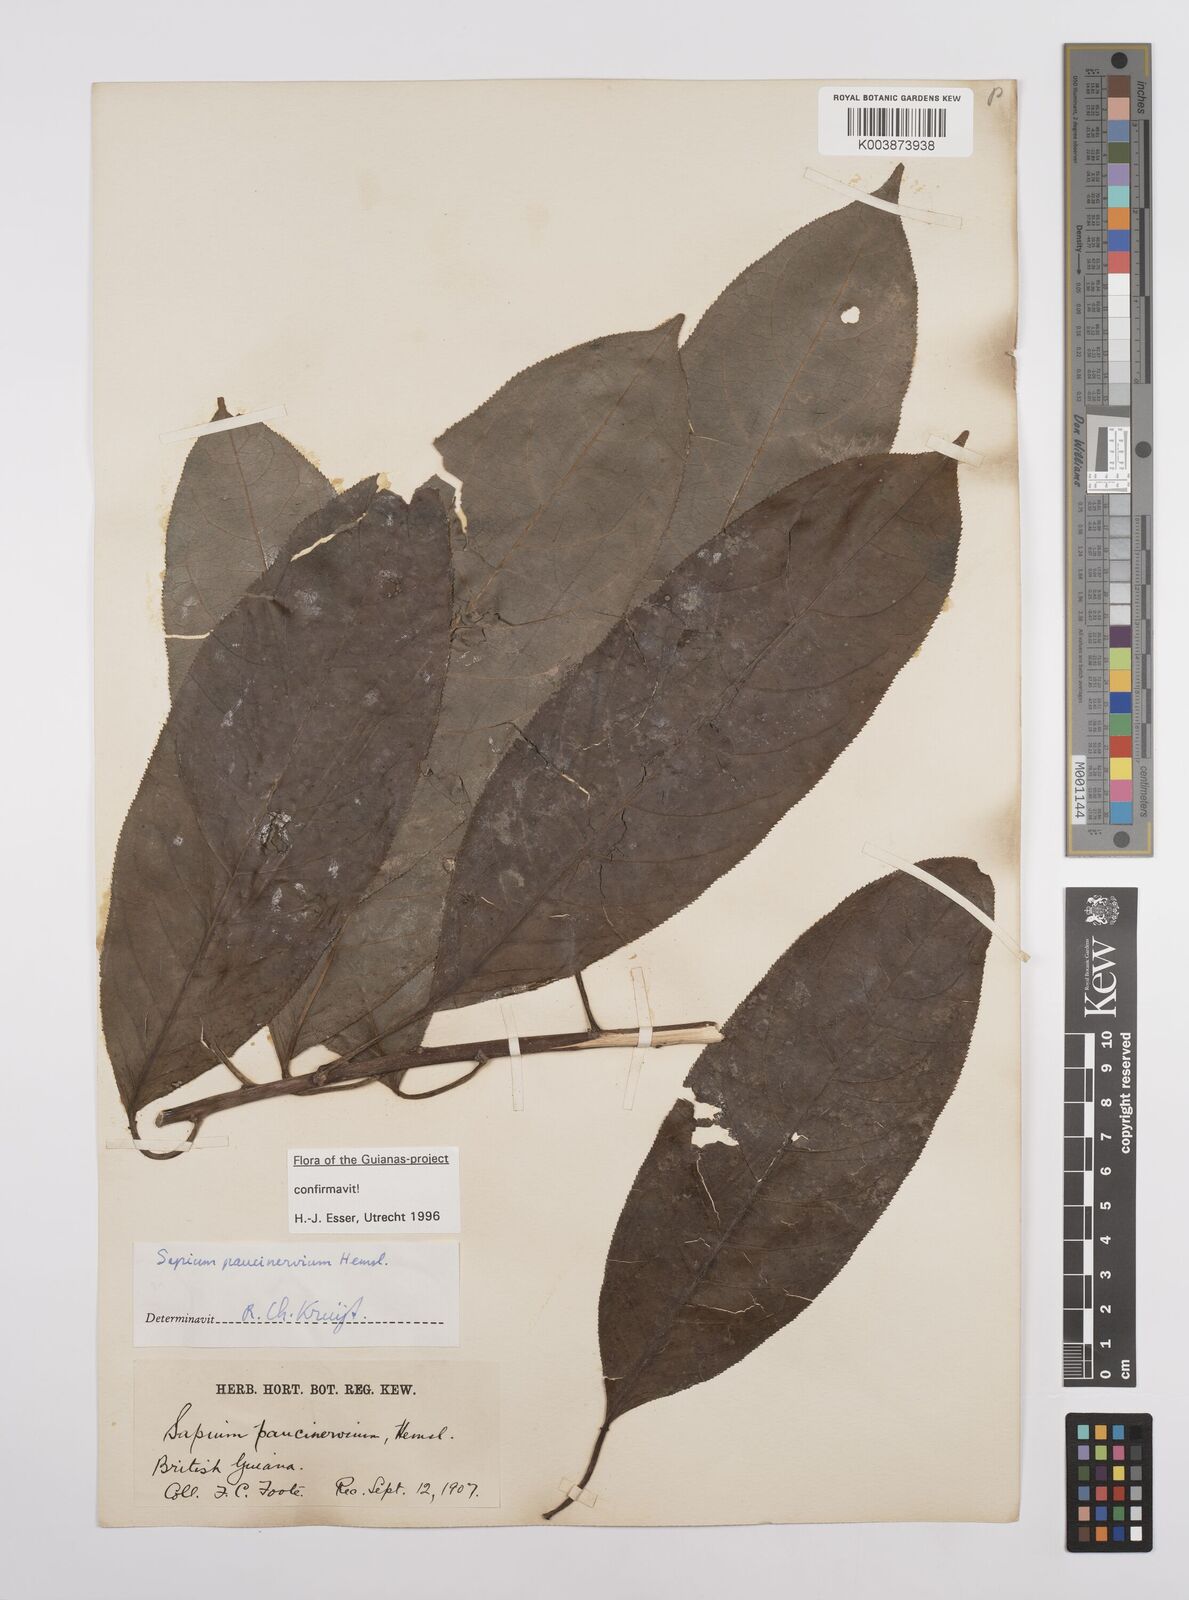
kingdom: Plantae
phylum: Tracheophyta
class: Magnoliopsida
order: Malpighiales
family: Euphorbiaceae
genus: Sapium
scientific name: Sapium paucinervium
